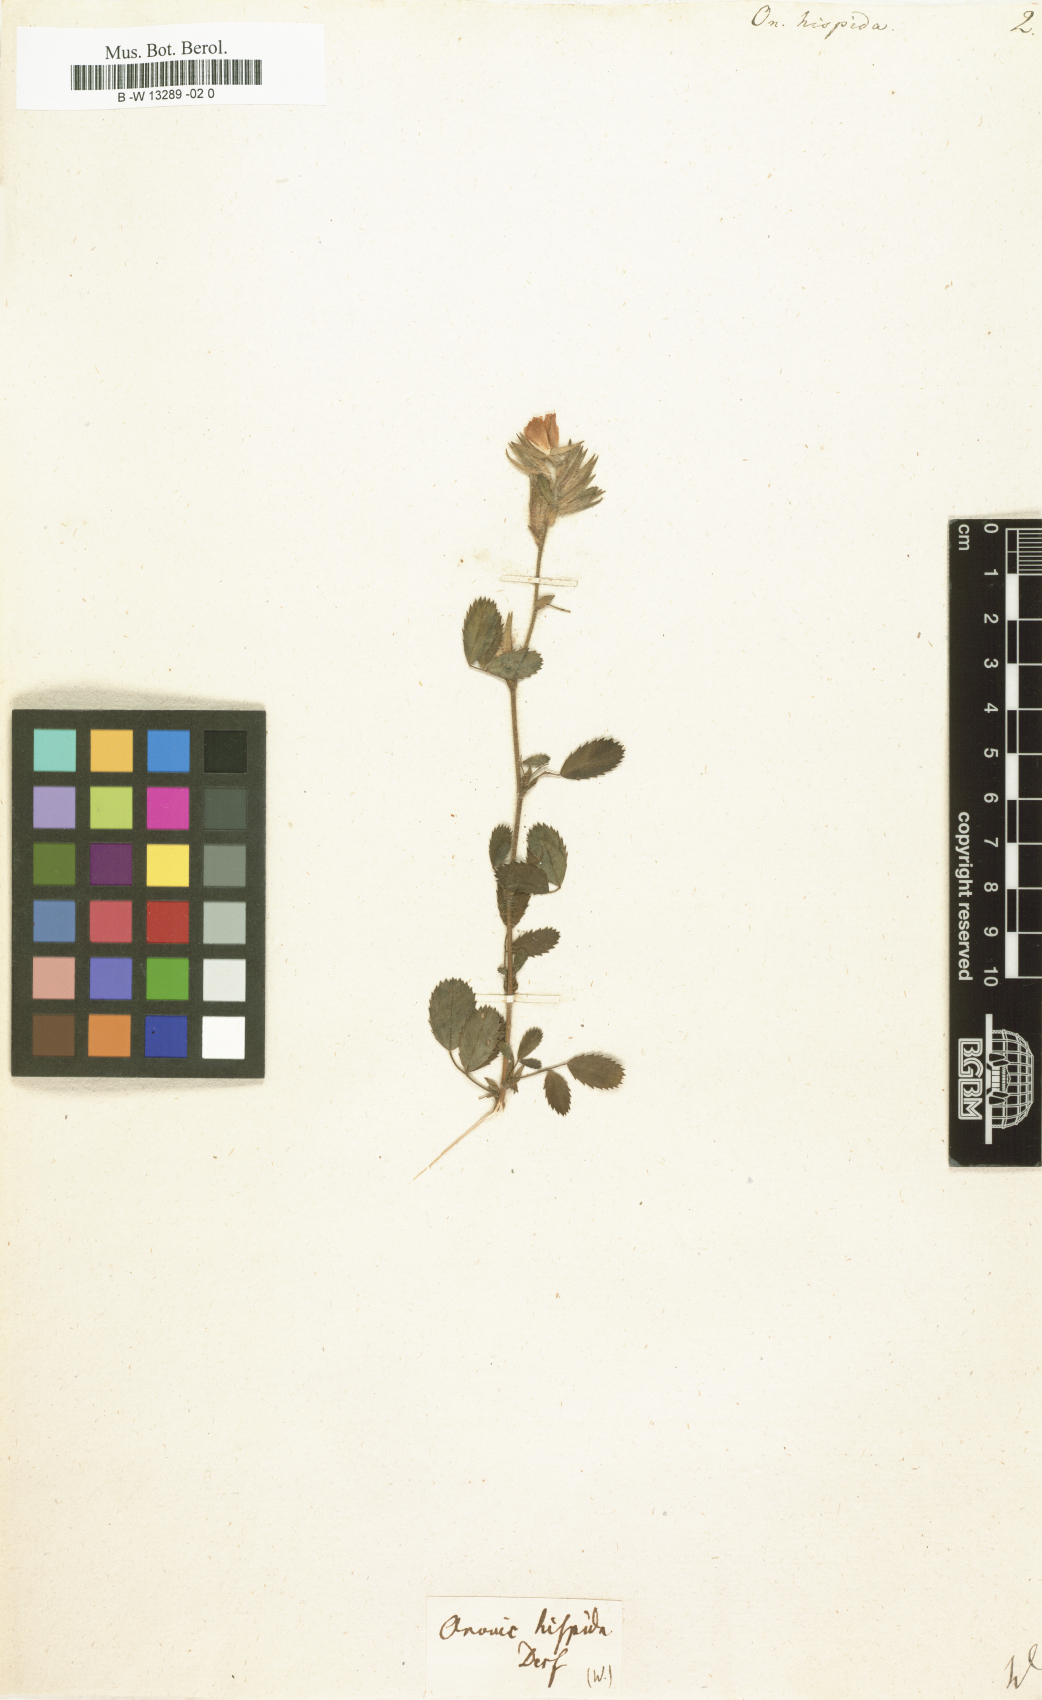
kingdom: Plantae
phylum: Tracheophyta
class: Magnoliopsida
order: Fabales
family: Fabaceae
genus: Ononis
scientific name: Ononis hispida
